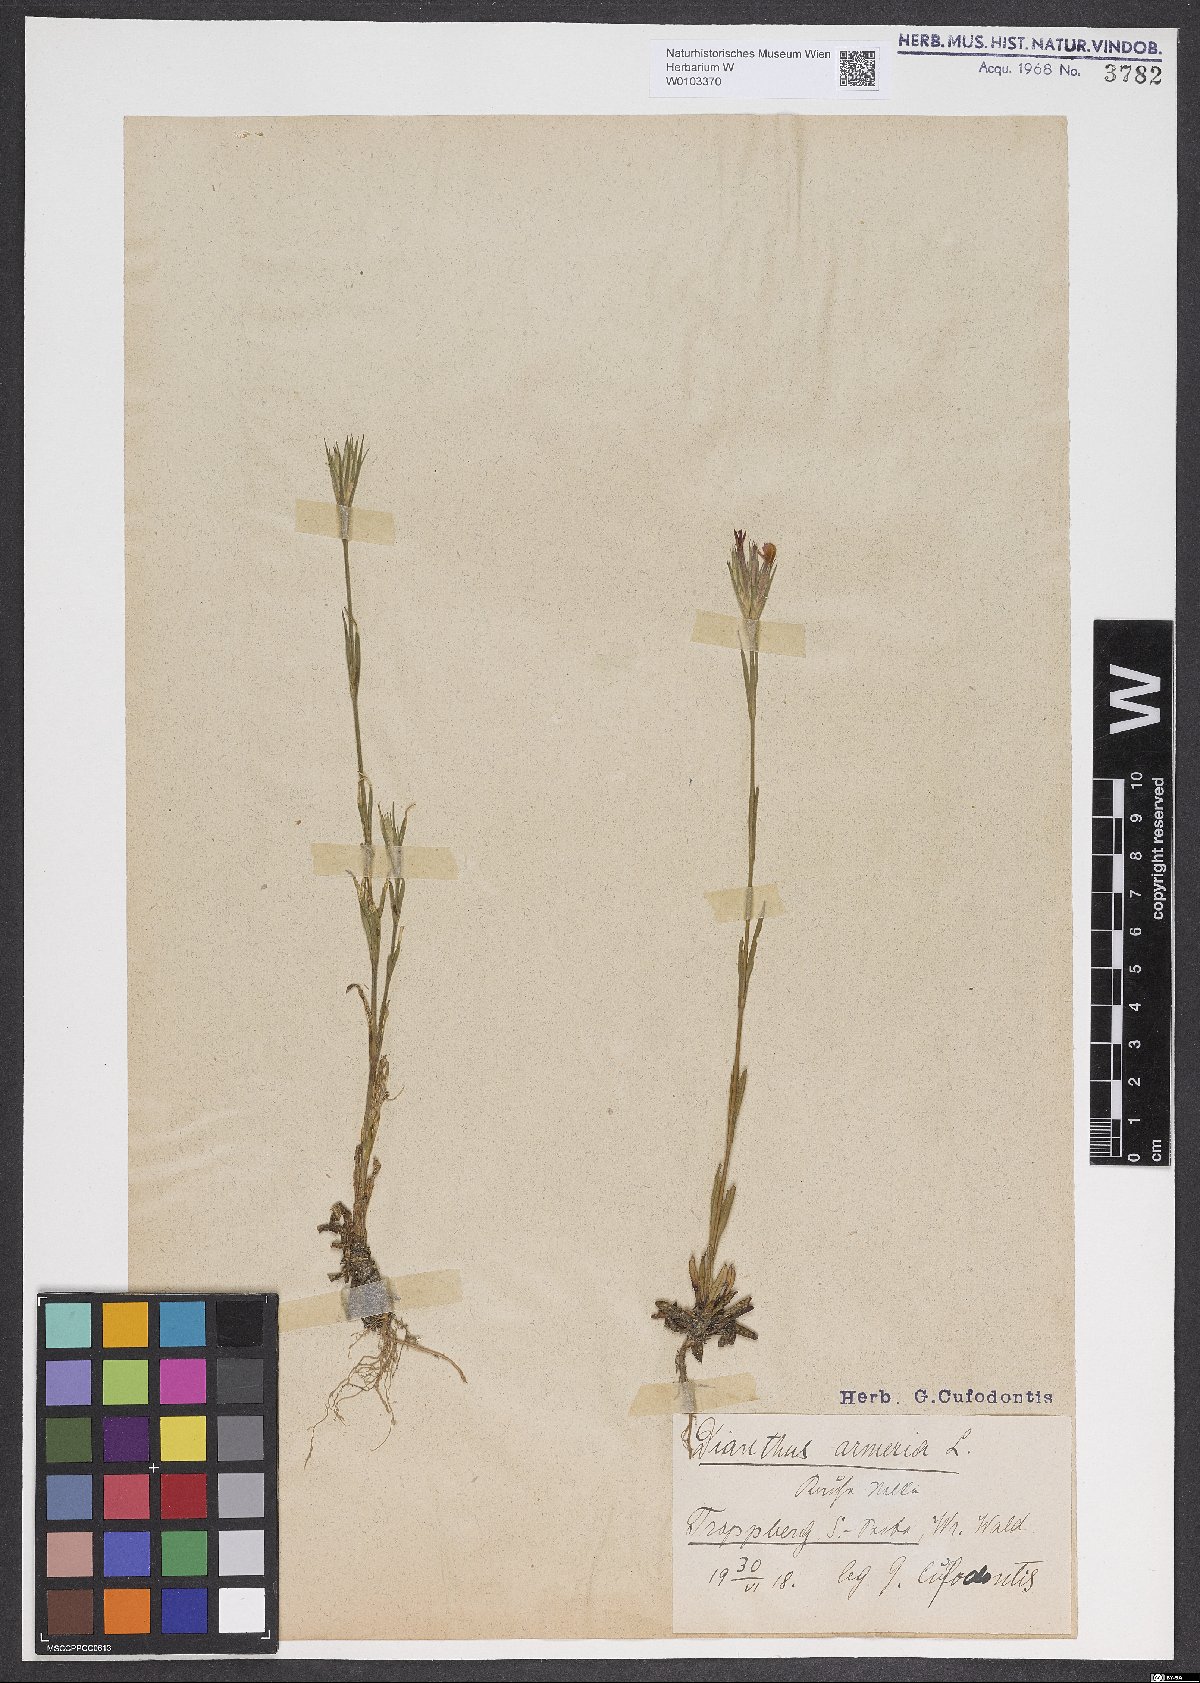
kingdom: Plantae
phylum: Tracheophyta
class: Magnoliopsida
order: Caryophyllales
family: Caryophyllaceae
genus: Dianthus
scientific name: Dianthus armeria
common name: Deptford pink
